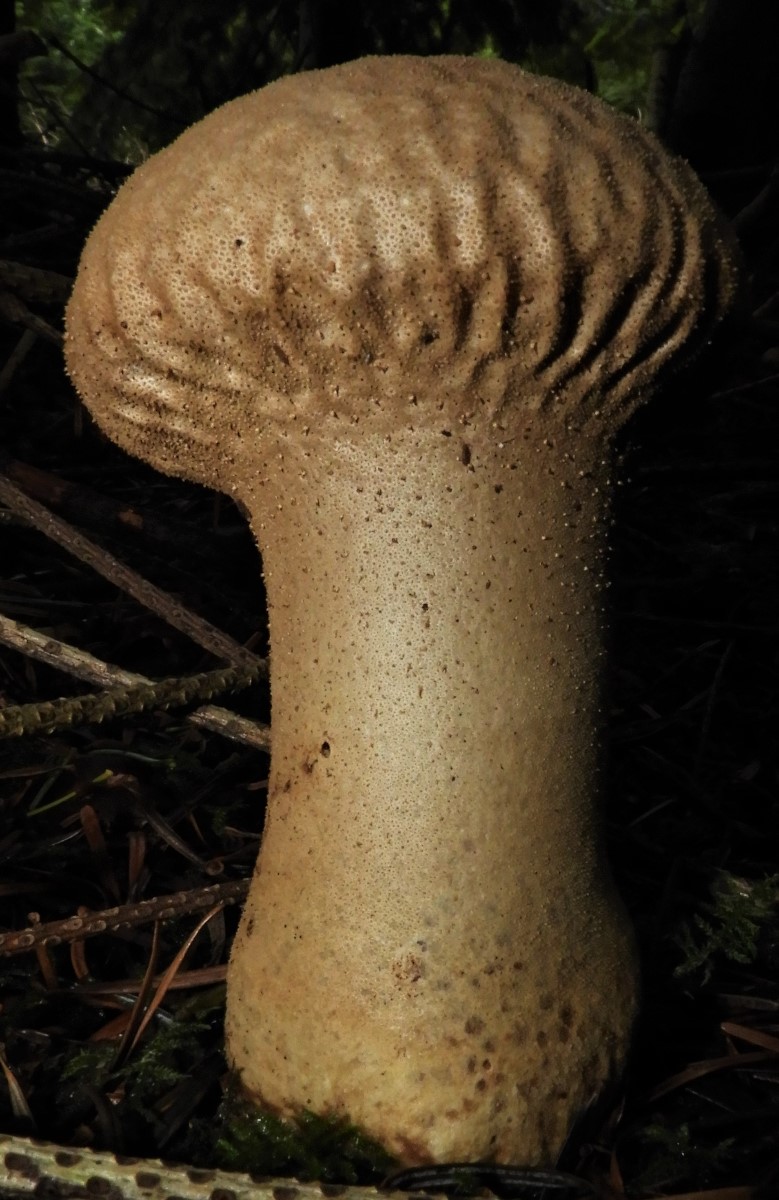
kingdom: Fungi
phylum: Basidiomycota
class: Agaricomycetes
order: Agaricales
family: Lycoperdaceae
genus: Lycoperdon
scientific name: Lycoperdon perlatum
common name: krystal-støvbold
